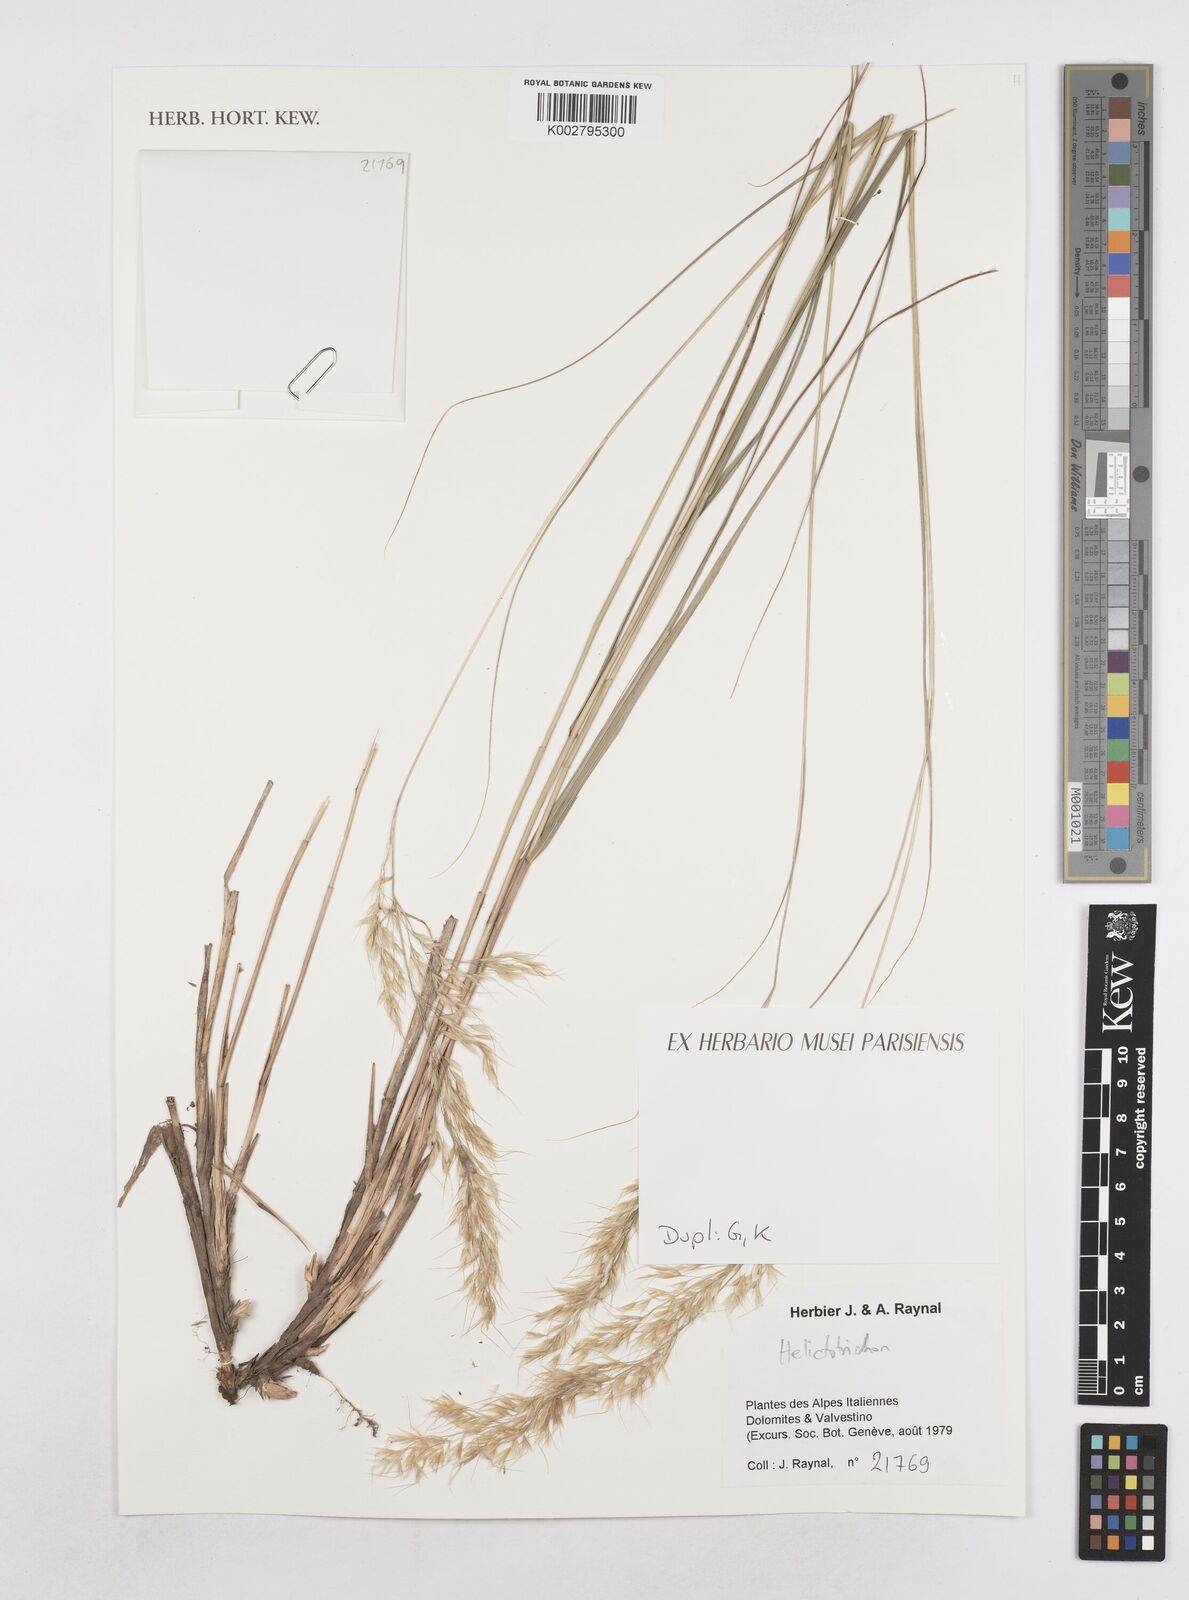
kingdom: Plantae
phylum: Tracheophyta
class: Liliopsida
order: Poales
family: Poaceae
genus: Helictotrichon
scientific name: Helictotrichon
